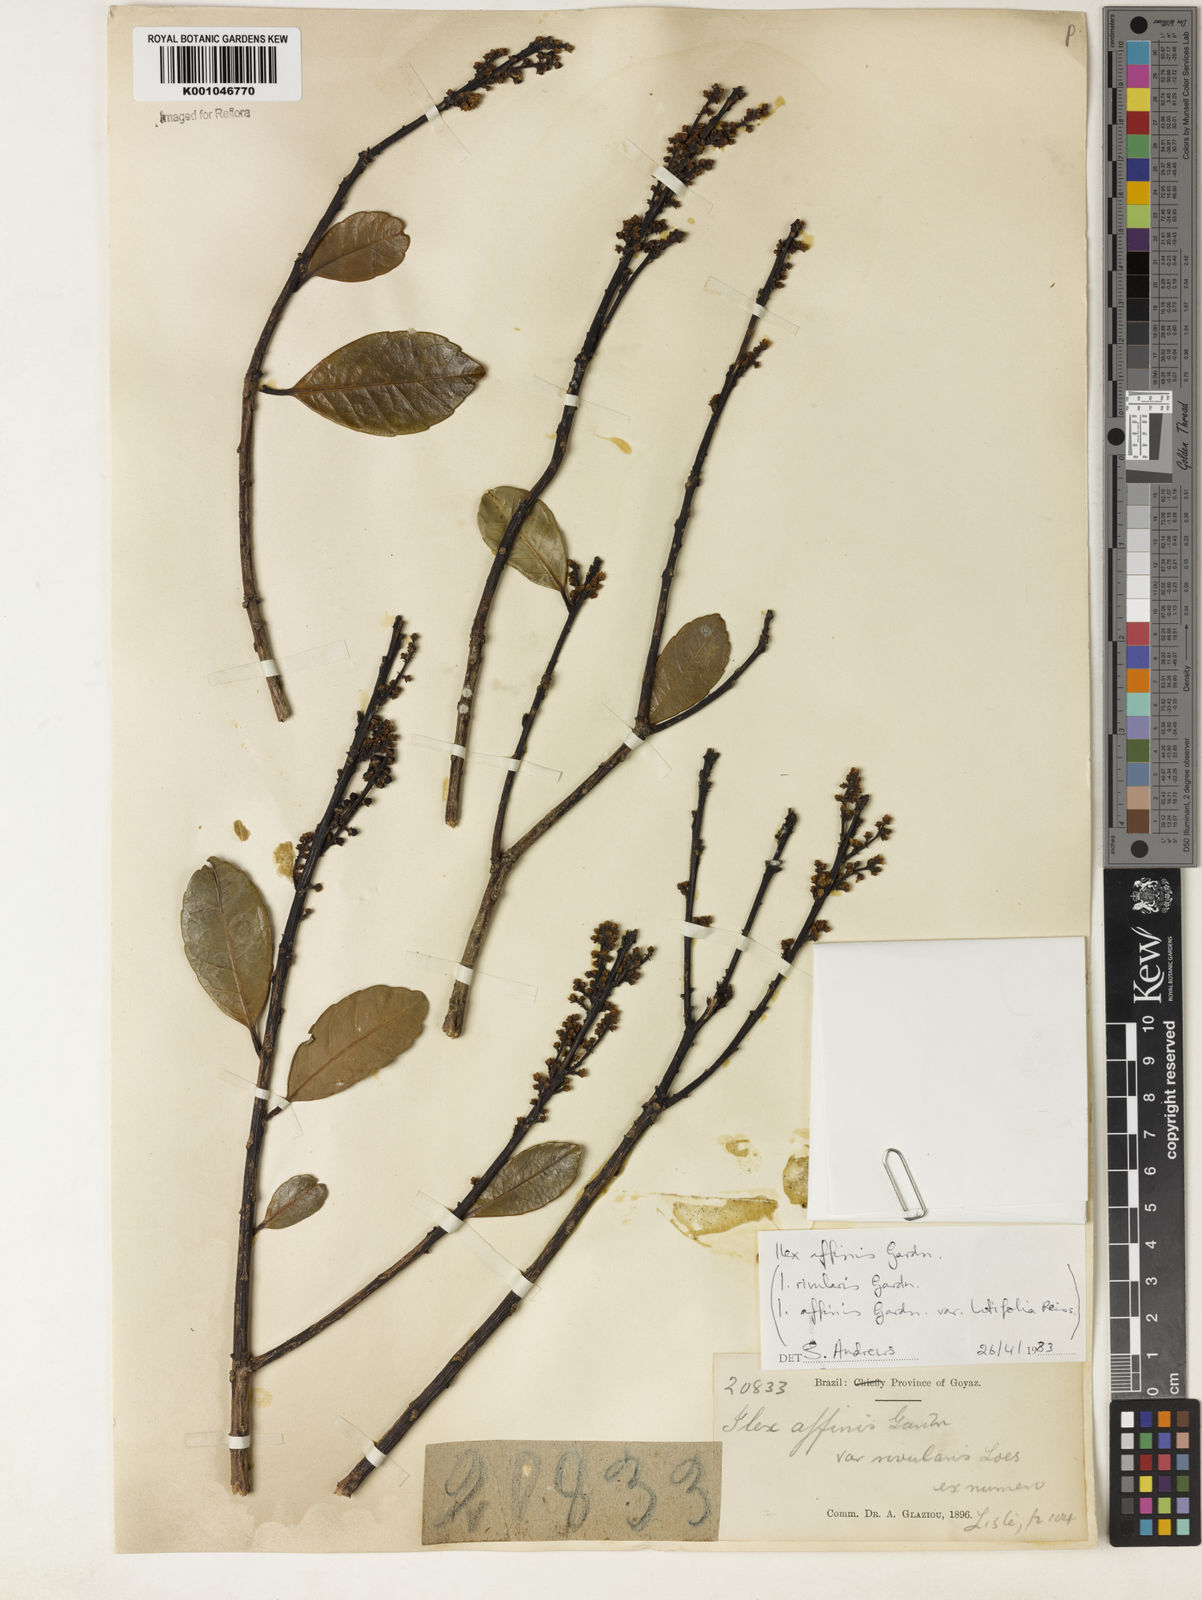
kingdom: Plantae
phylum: Tracheophyta
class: Magnoliopsida
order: Aquifoliales
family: Aquifoliaceae
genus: Ilex
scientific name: Ilex affinis
